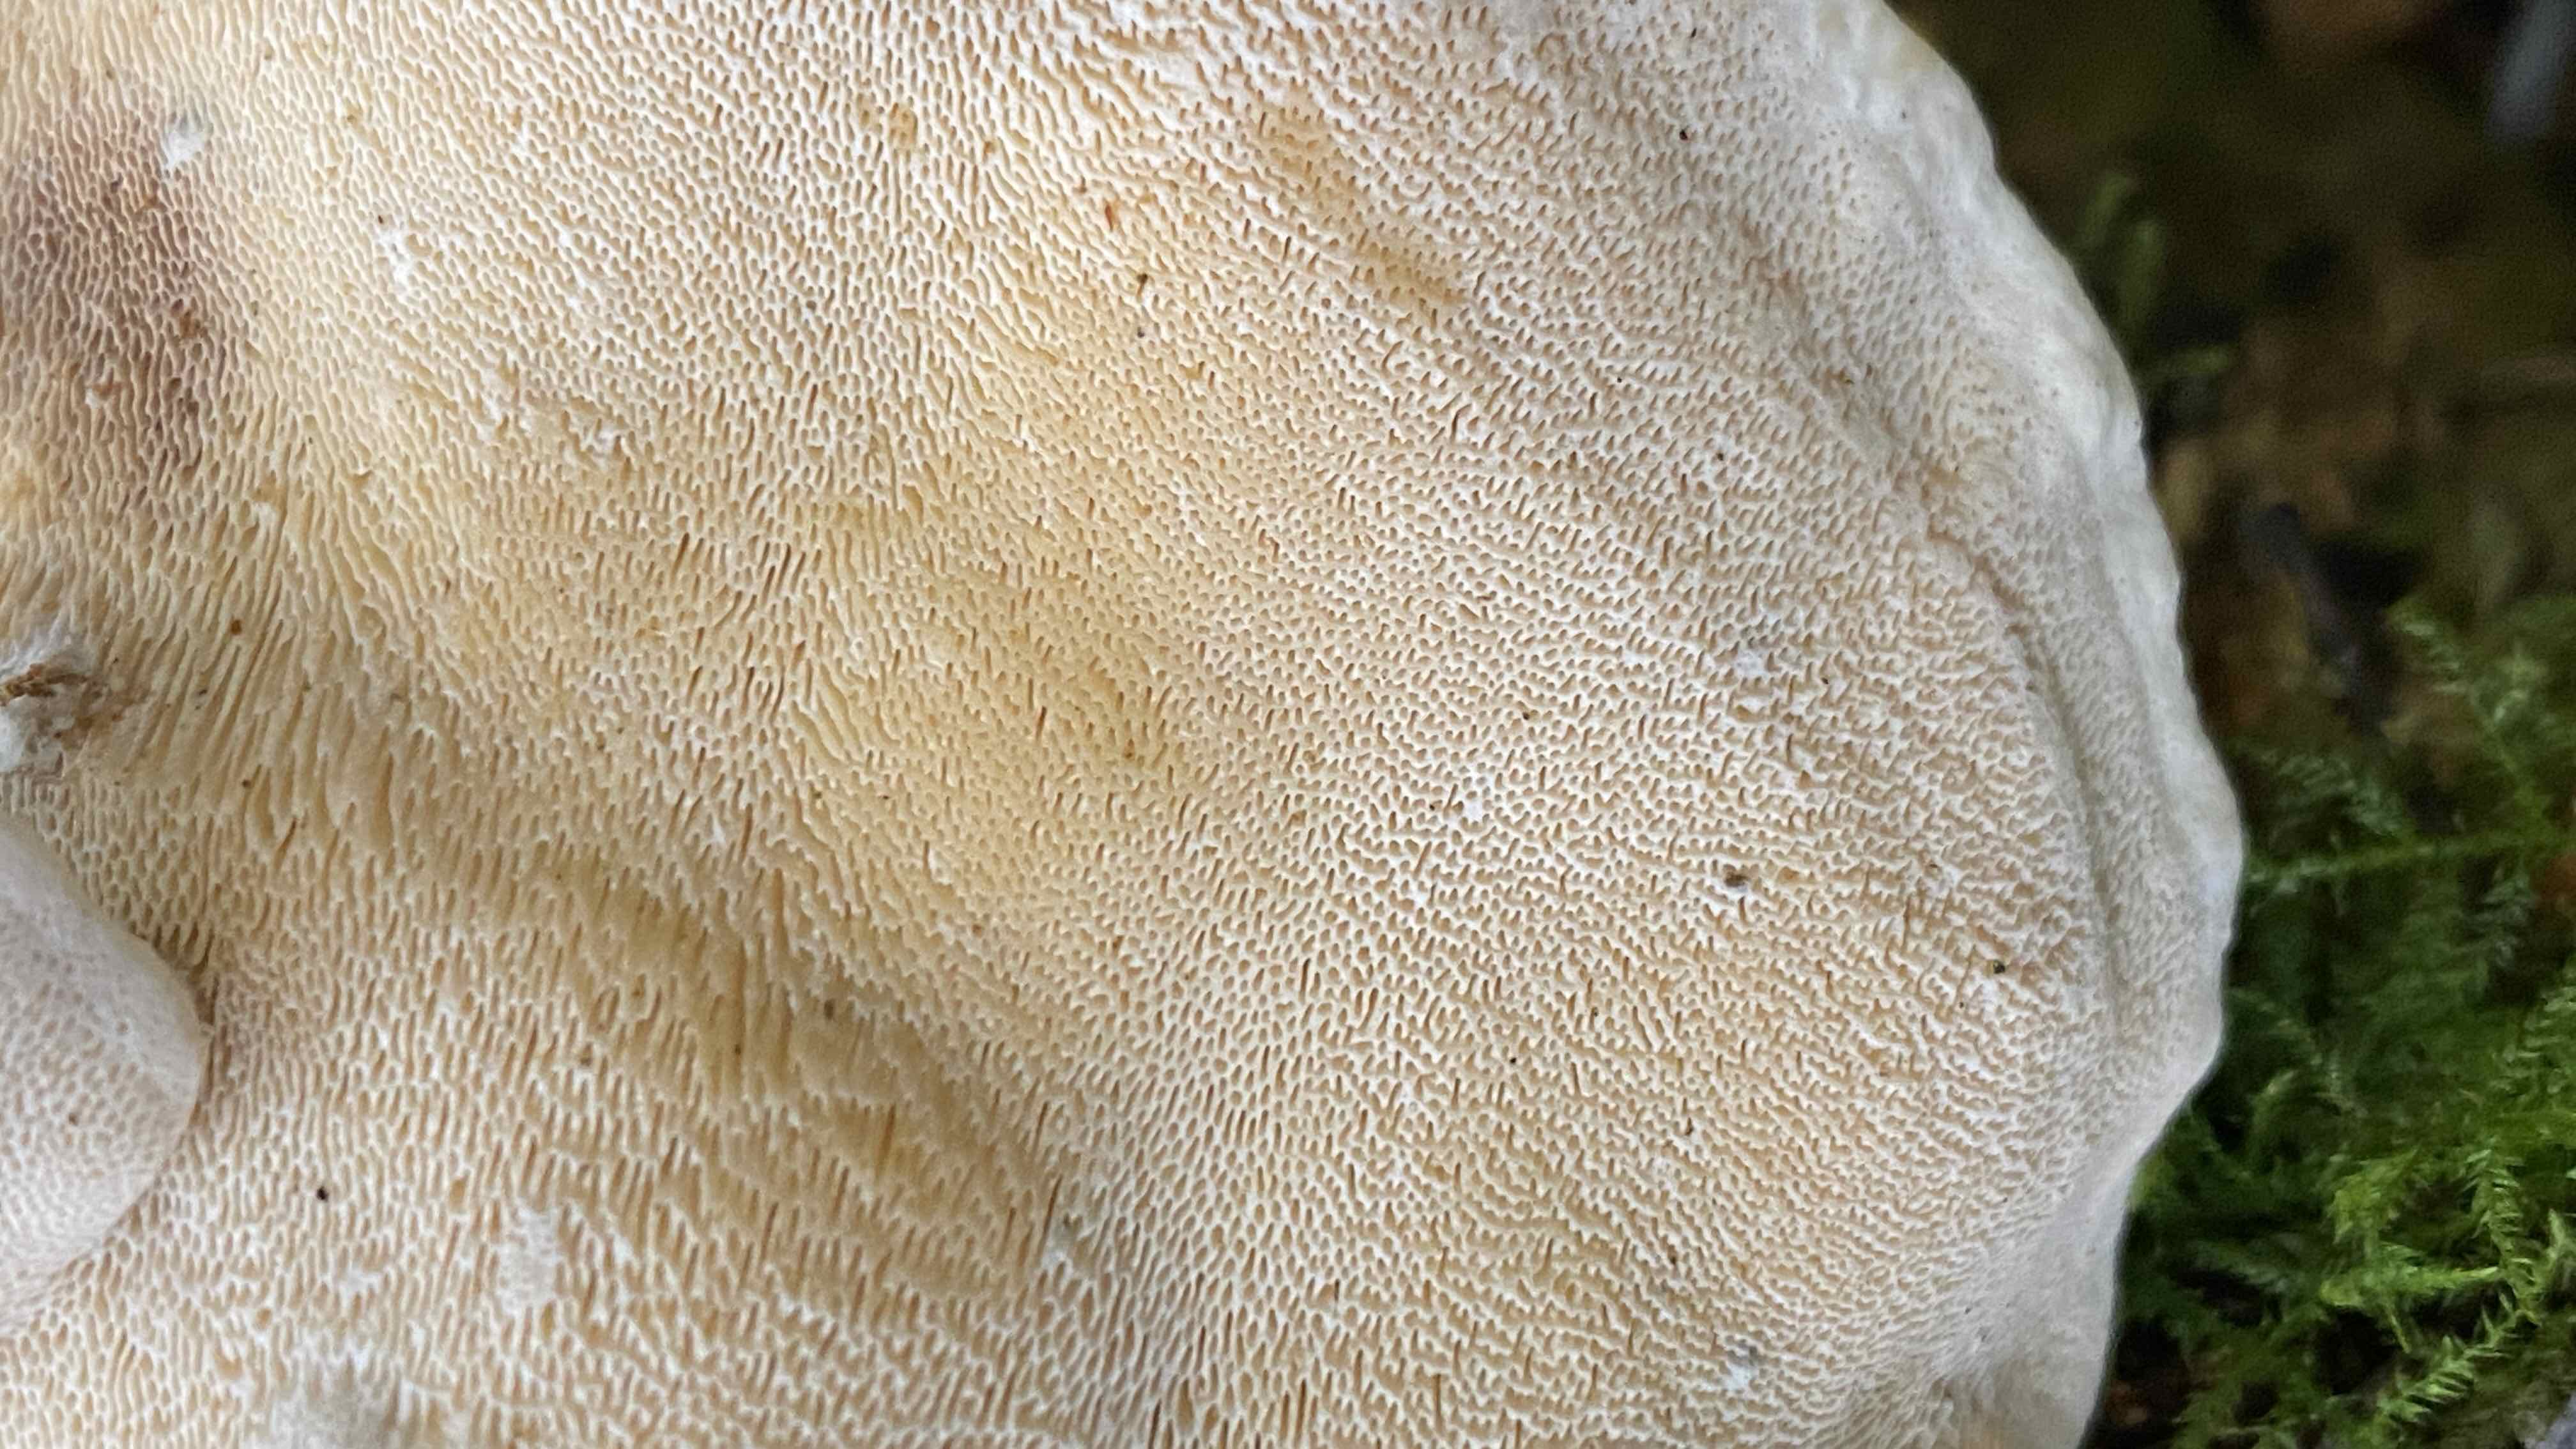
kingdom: Fungi
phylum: Basidiomycota
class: Agaricomycetes
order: Russulales
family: Bondarzewiaceae
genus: Heterobasidion
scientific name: Heterobasidion annosum
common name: almindelig rodfordærver
